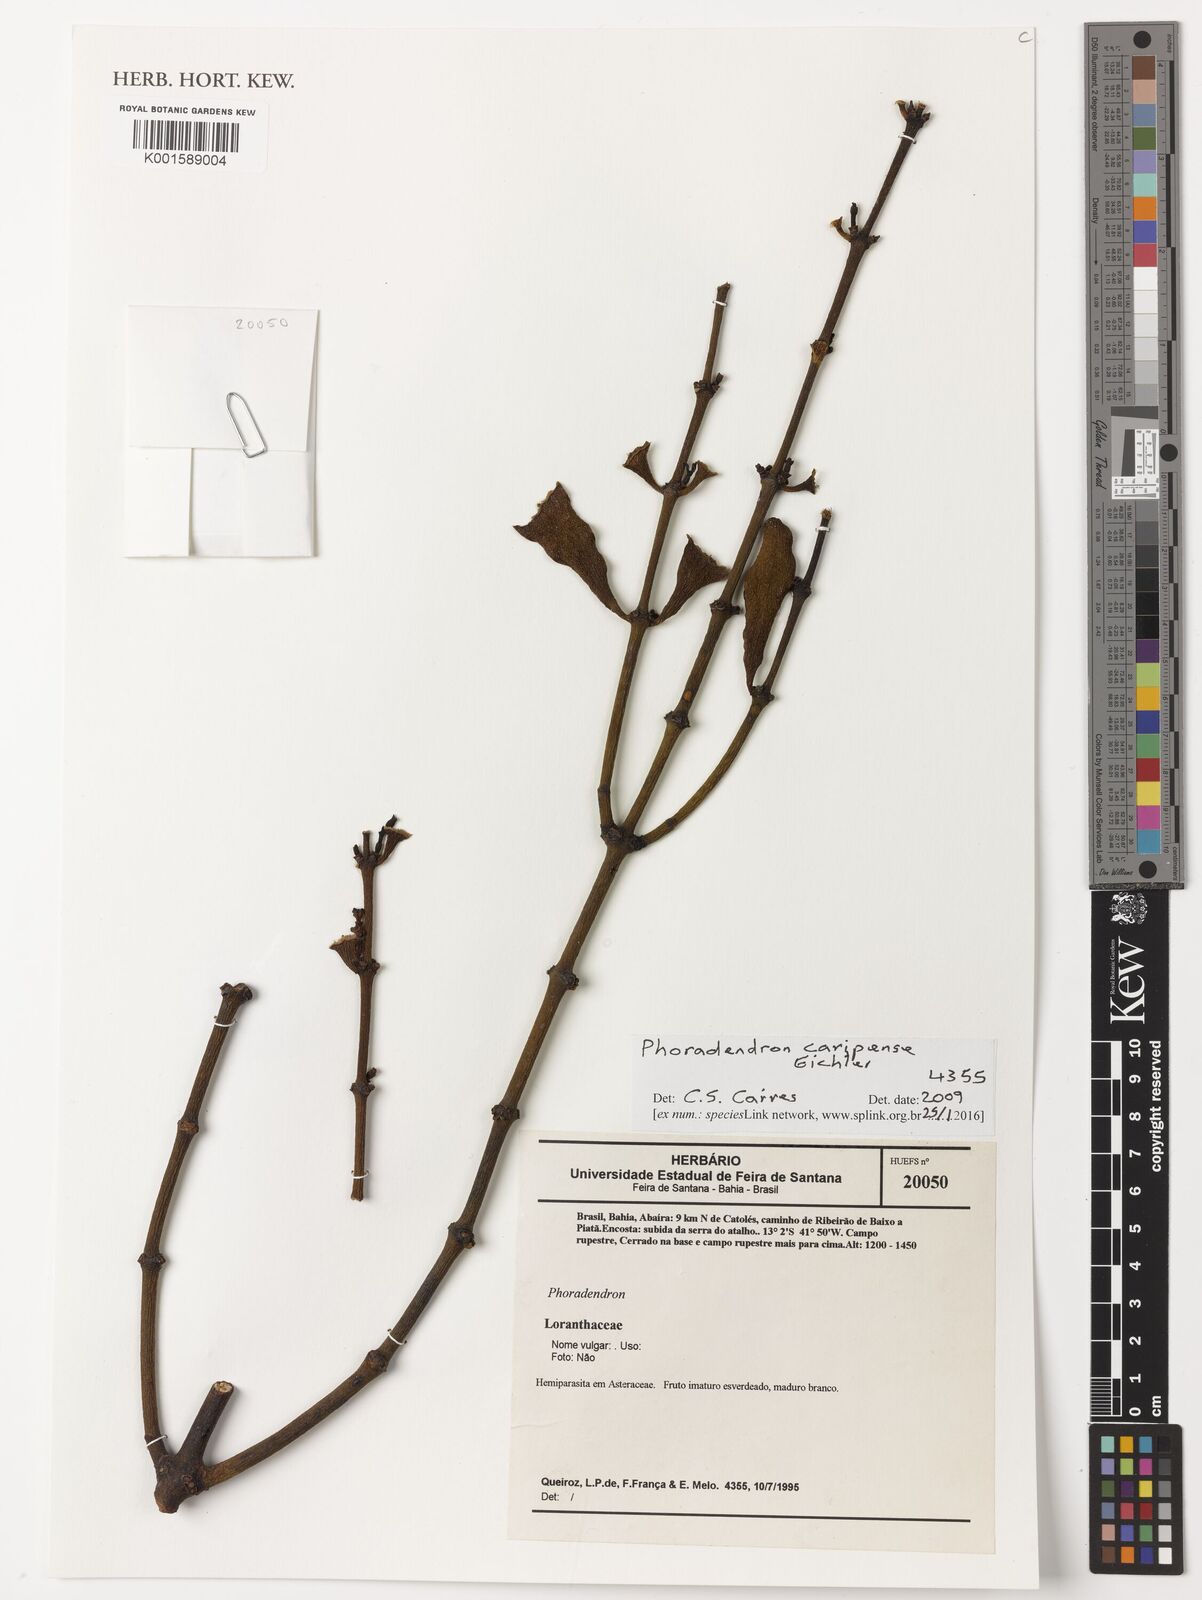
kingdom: Plantae
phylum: Tracheophyta
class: Magnoliopsida
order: Santalales
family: Viscaceae
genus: Phoradendron
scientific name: Phoradendron caripense
